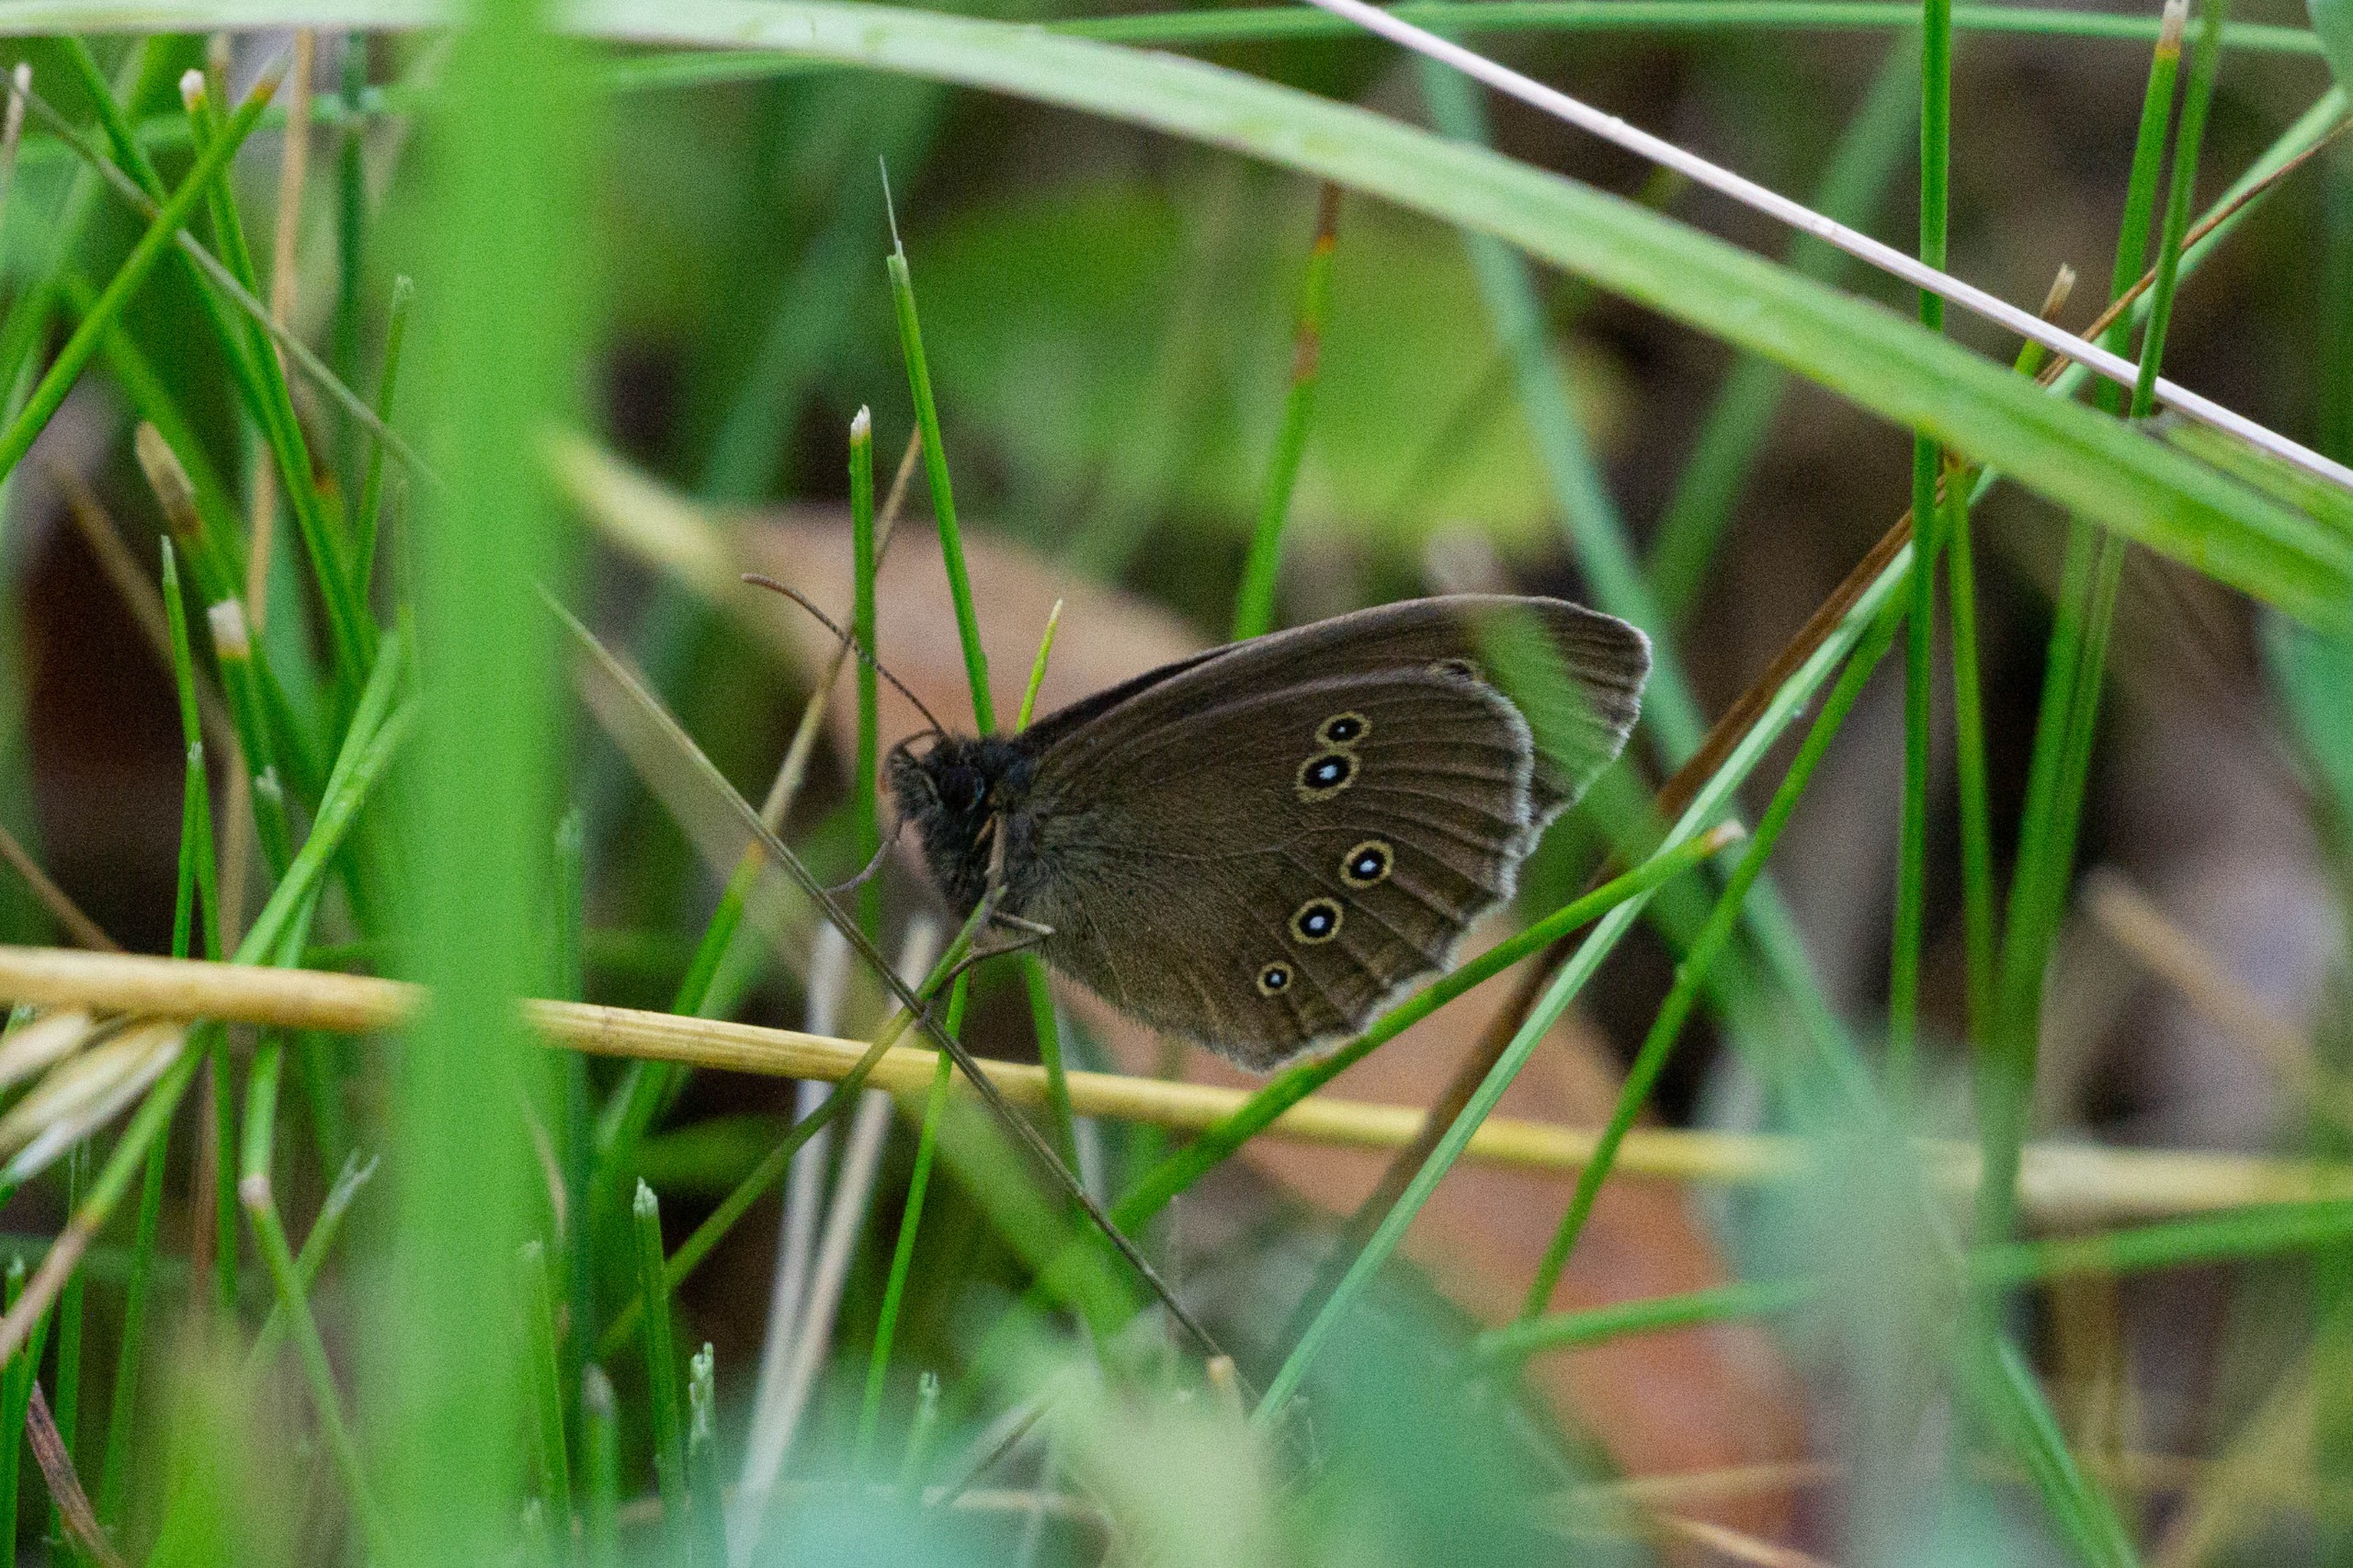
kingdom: Animalia
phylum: Arthropoda
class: Insecta
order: Lepidoptera
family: Nymphalidae
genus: Aphantopus
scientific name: Aphantopus hyperantus
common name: Engrandøje
